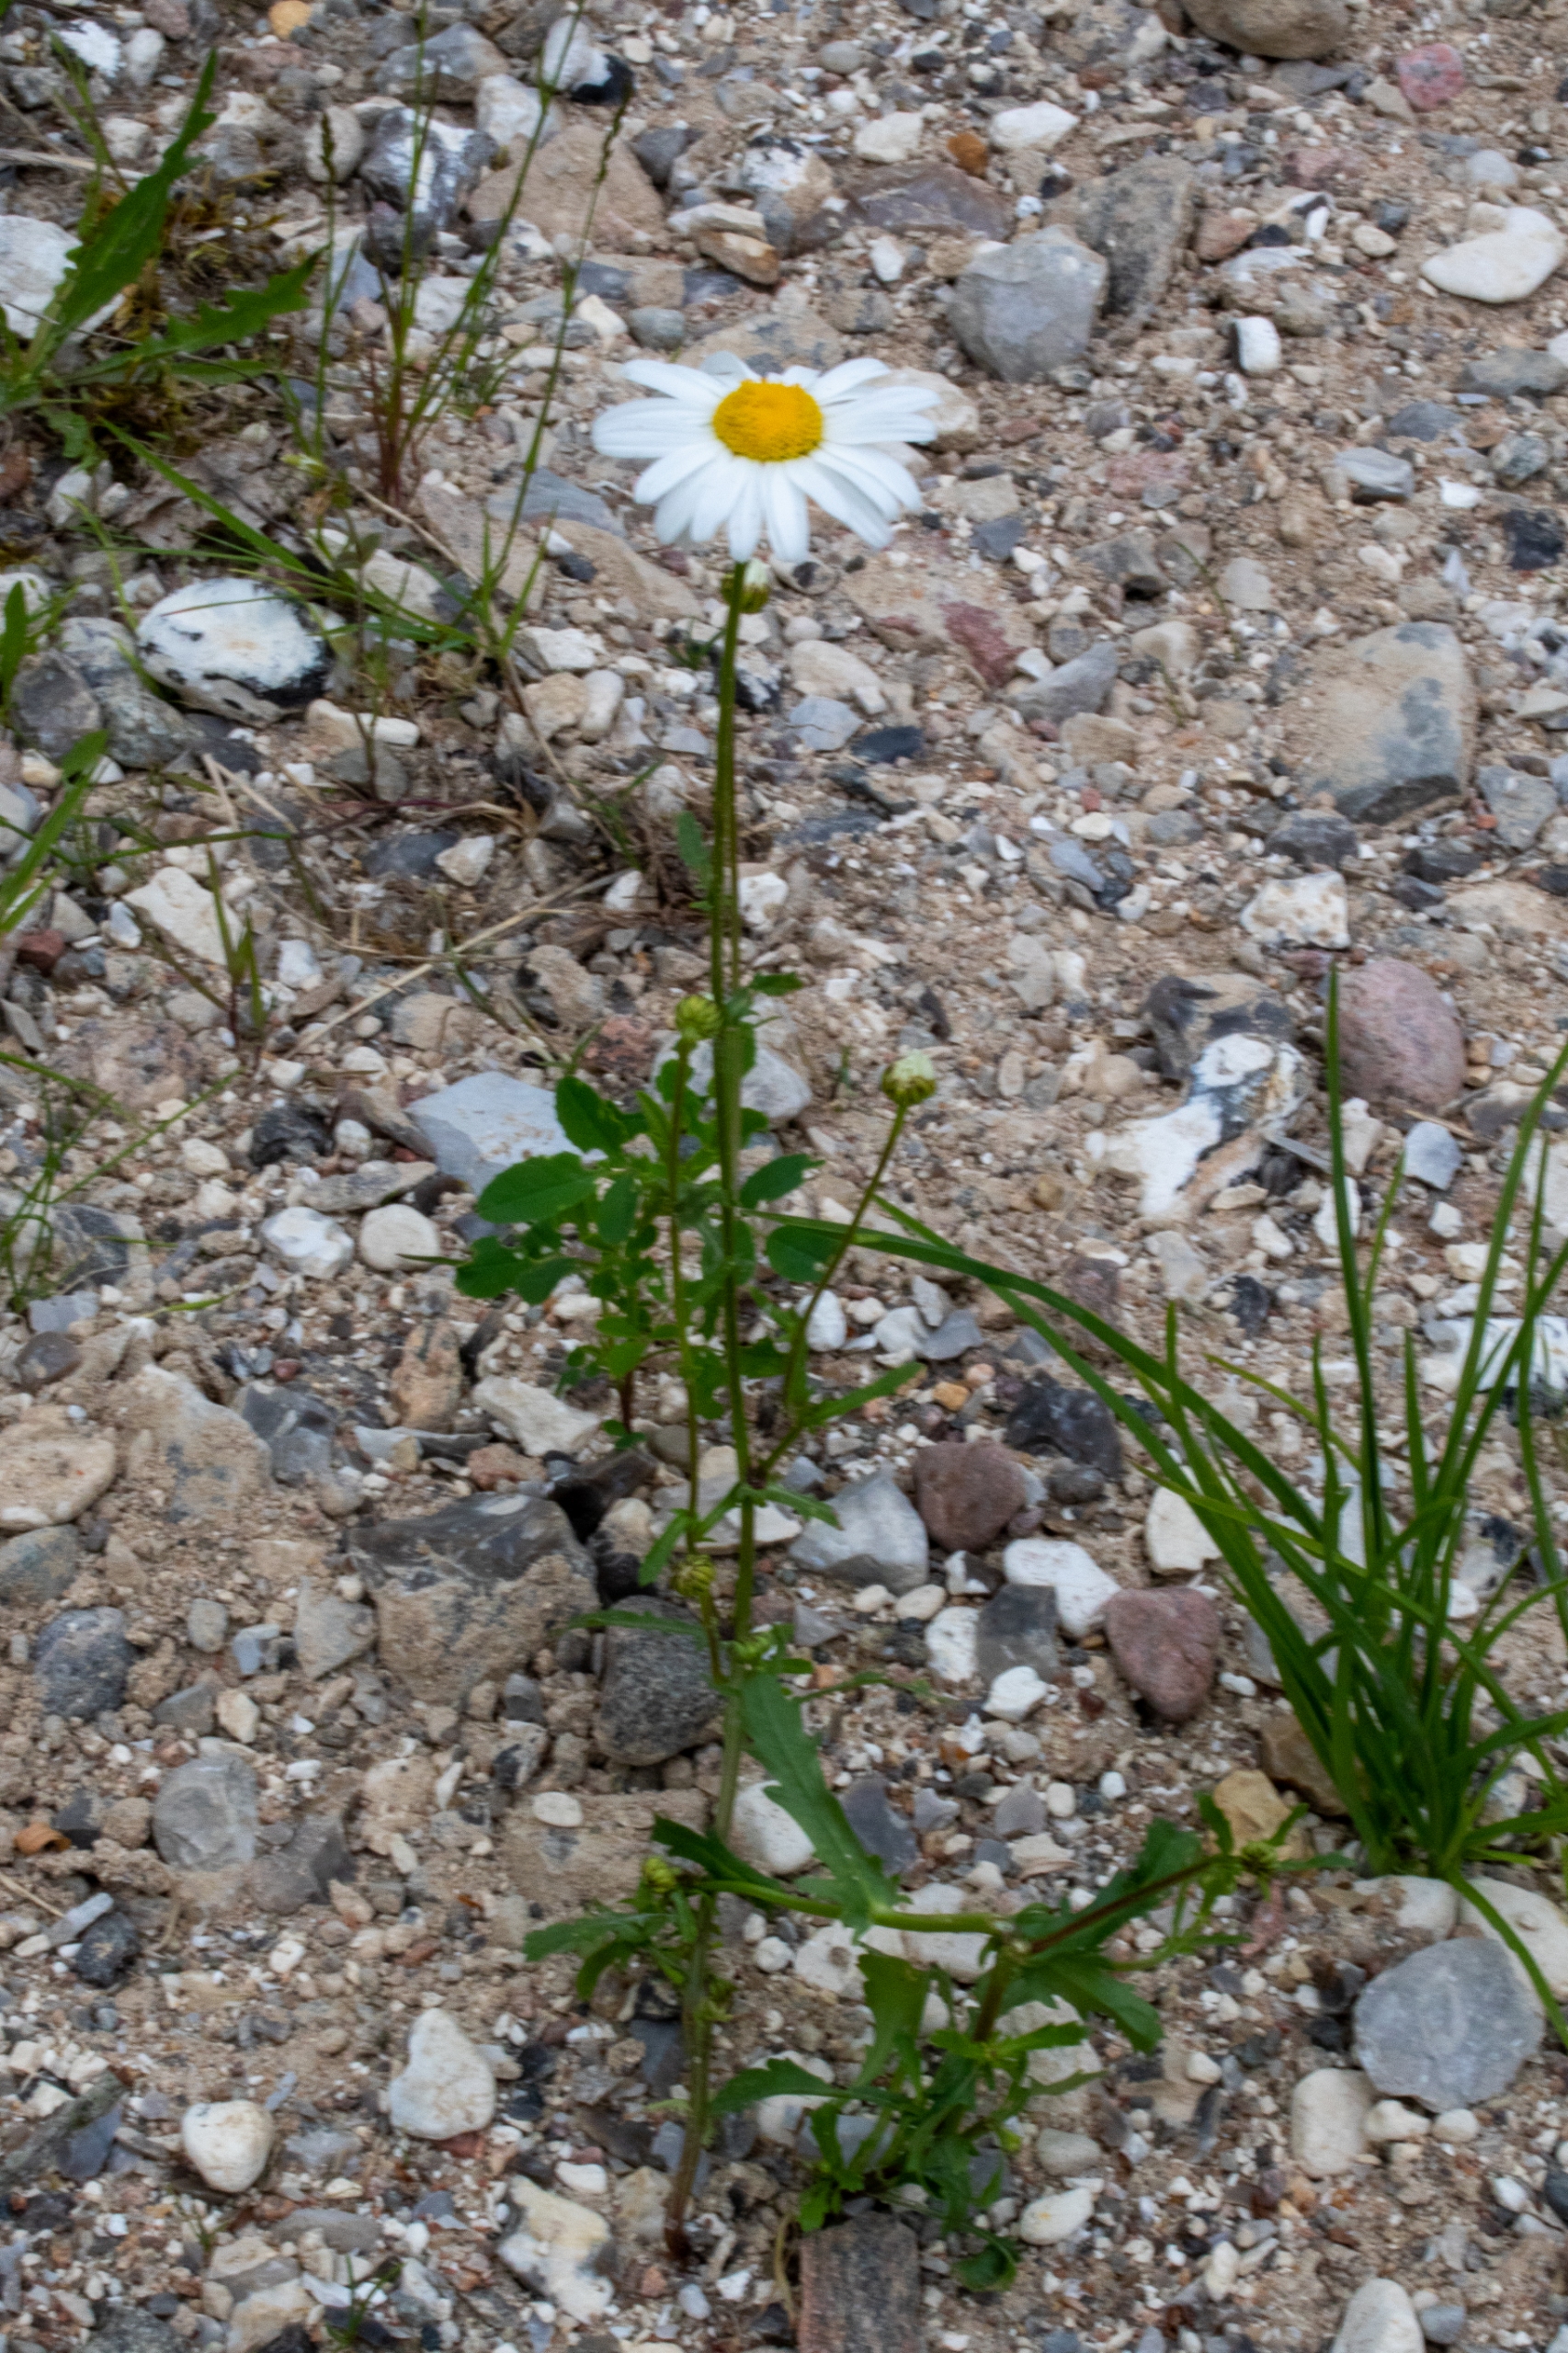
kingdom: Plantae
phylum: Tracheophyta
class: Magnoliopsida
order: Asterales
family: Asteraceae
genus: Leucanthemum
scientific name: Leucanthemum vulgare
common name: Hvid okseøje
